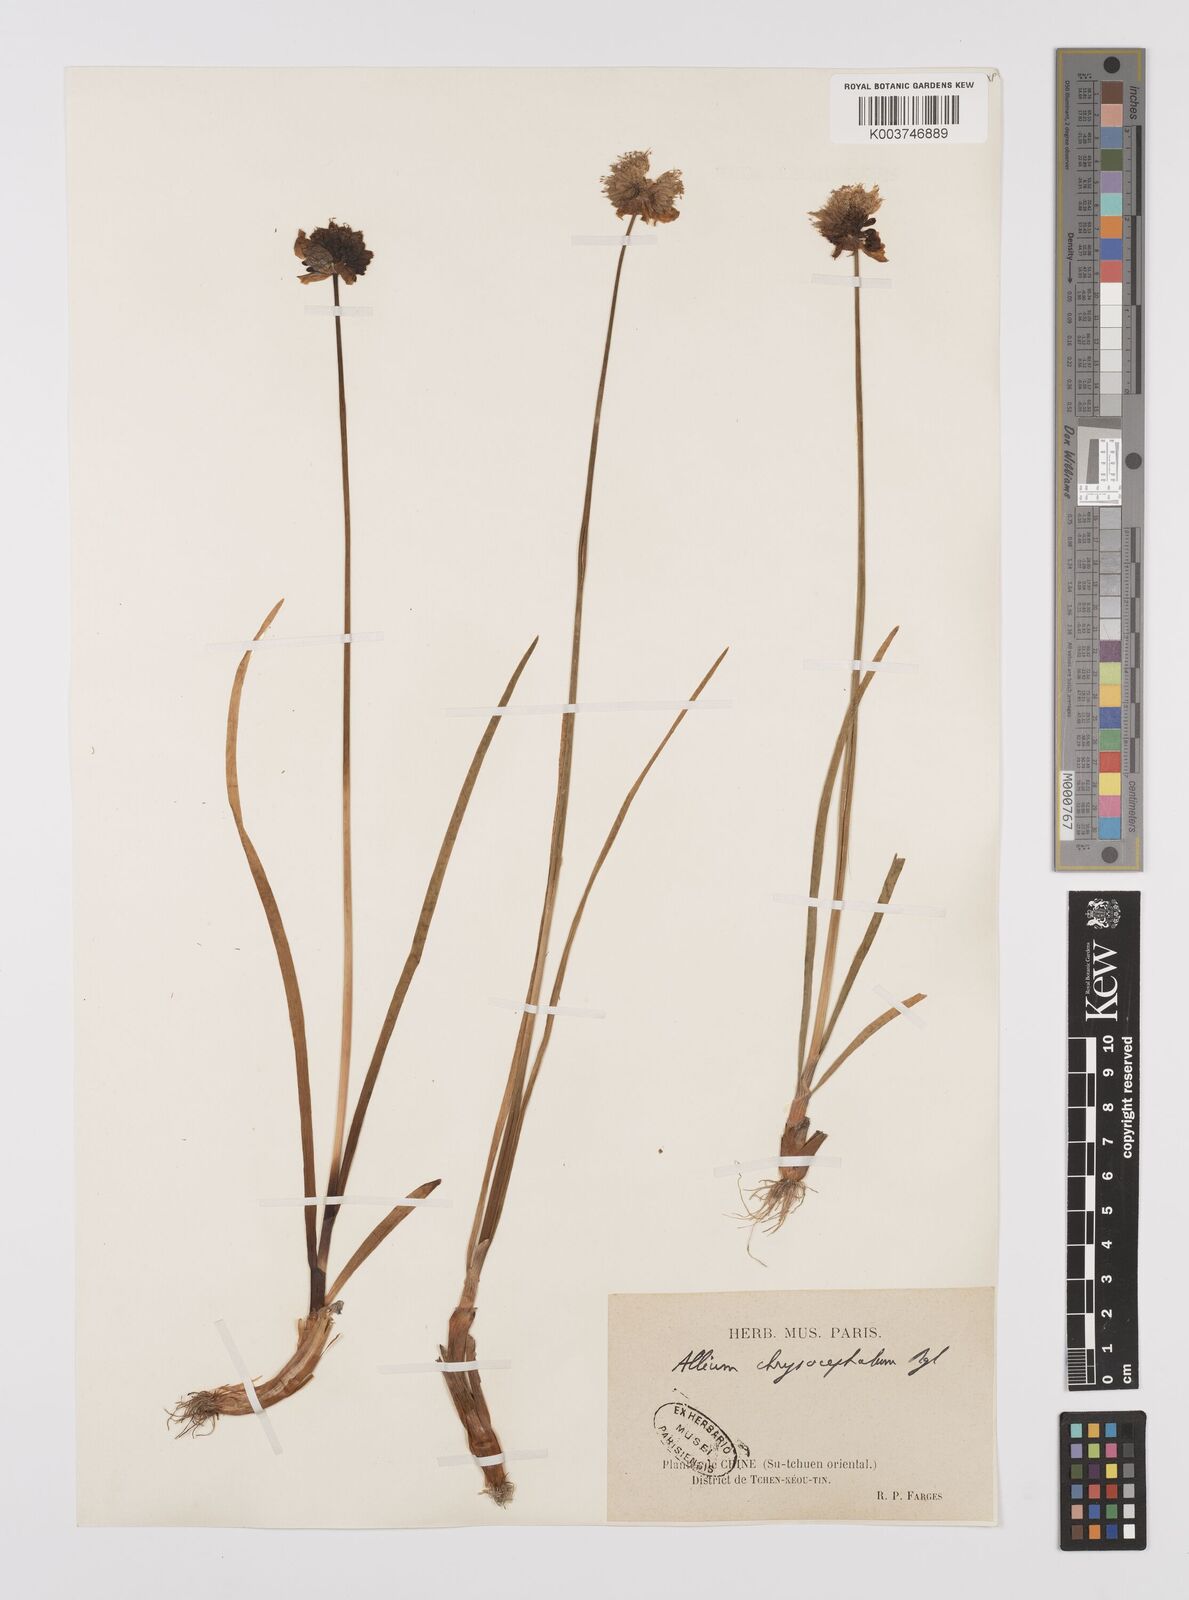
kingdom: Plantae
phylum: Tracheophyta
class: Liliopsida
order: Asparagales
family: Amaryllidaceae
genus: Allium
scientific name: Allium chrysocephalum
